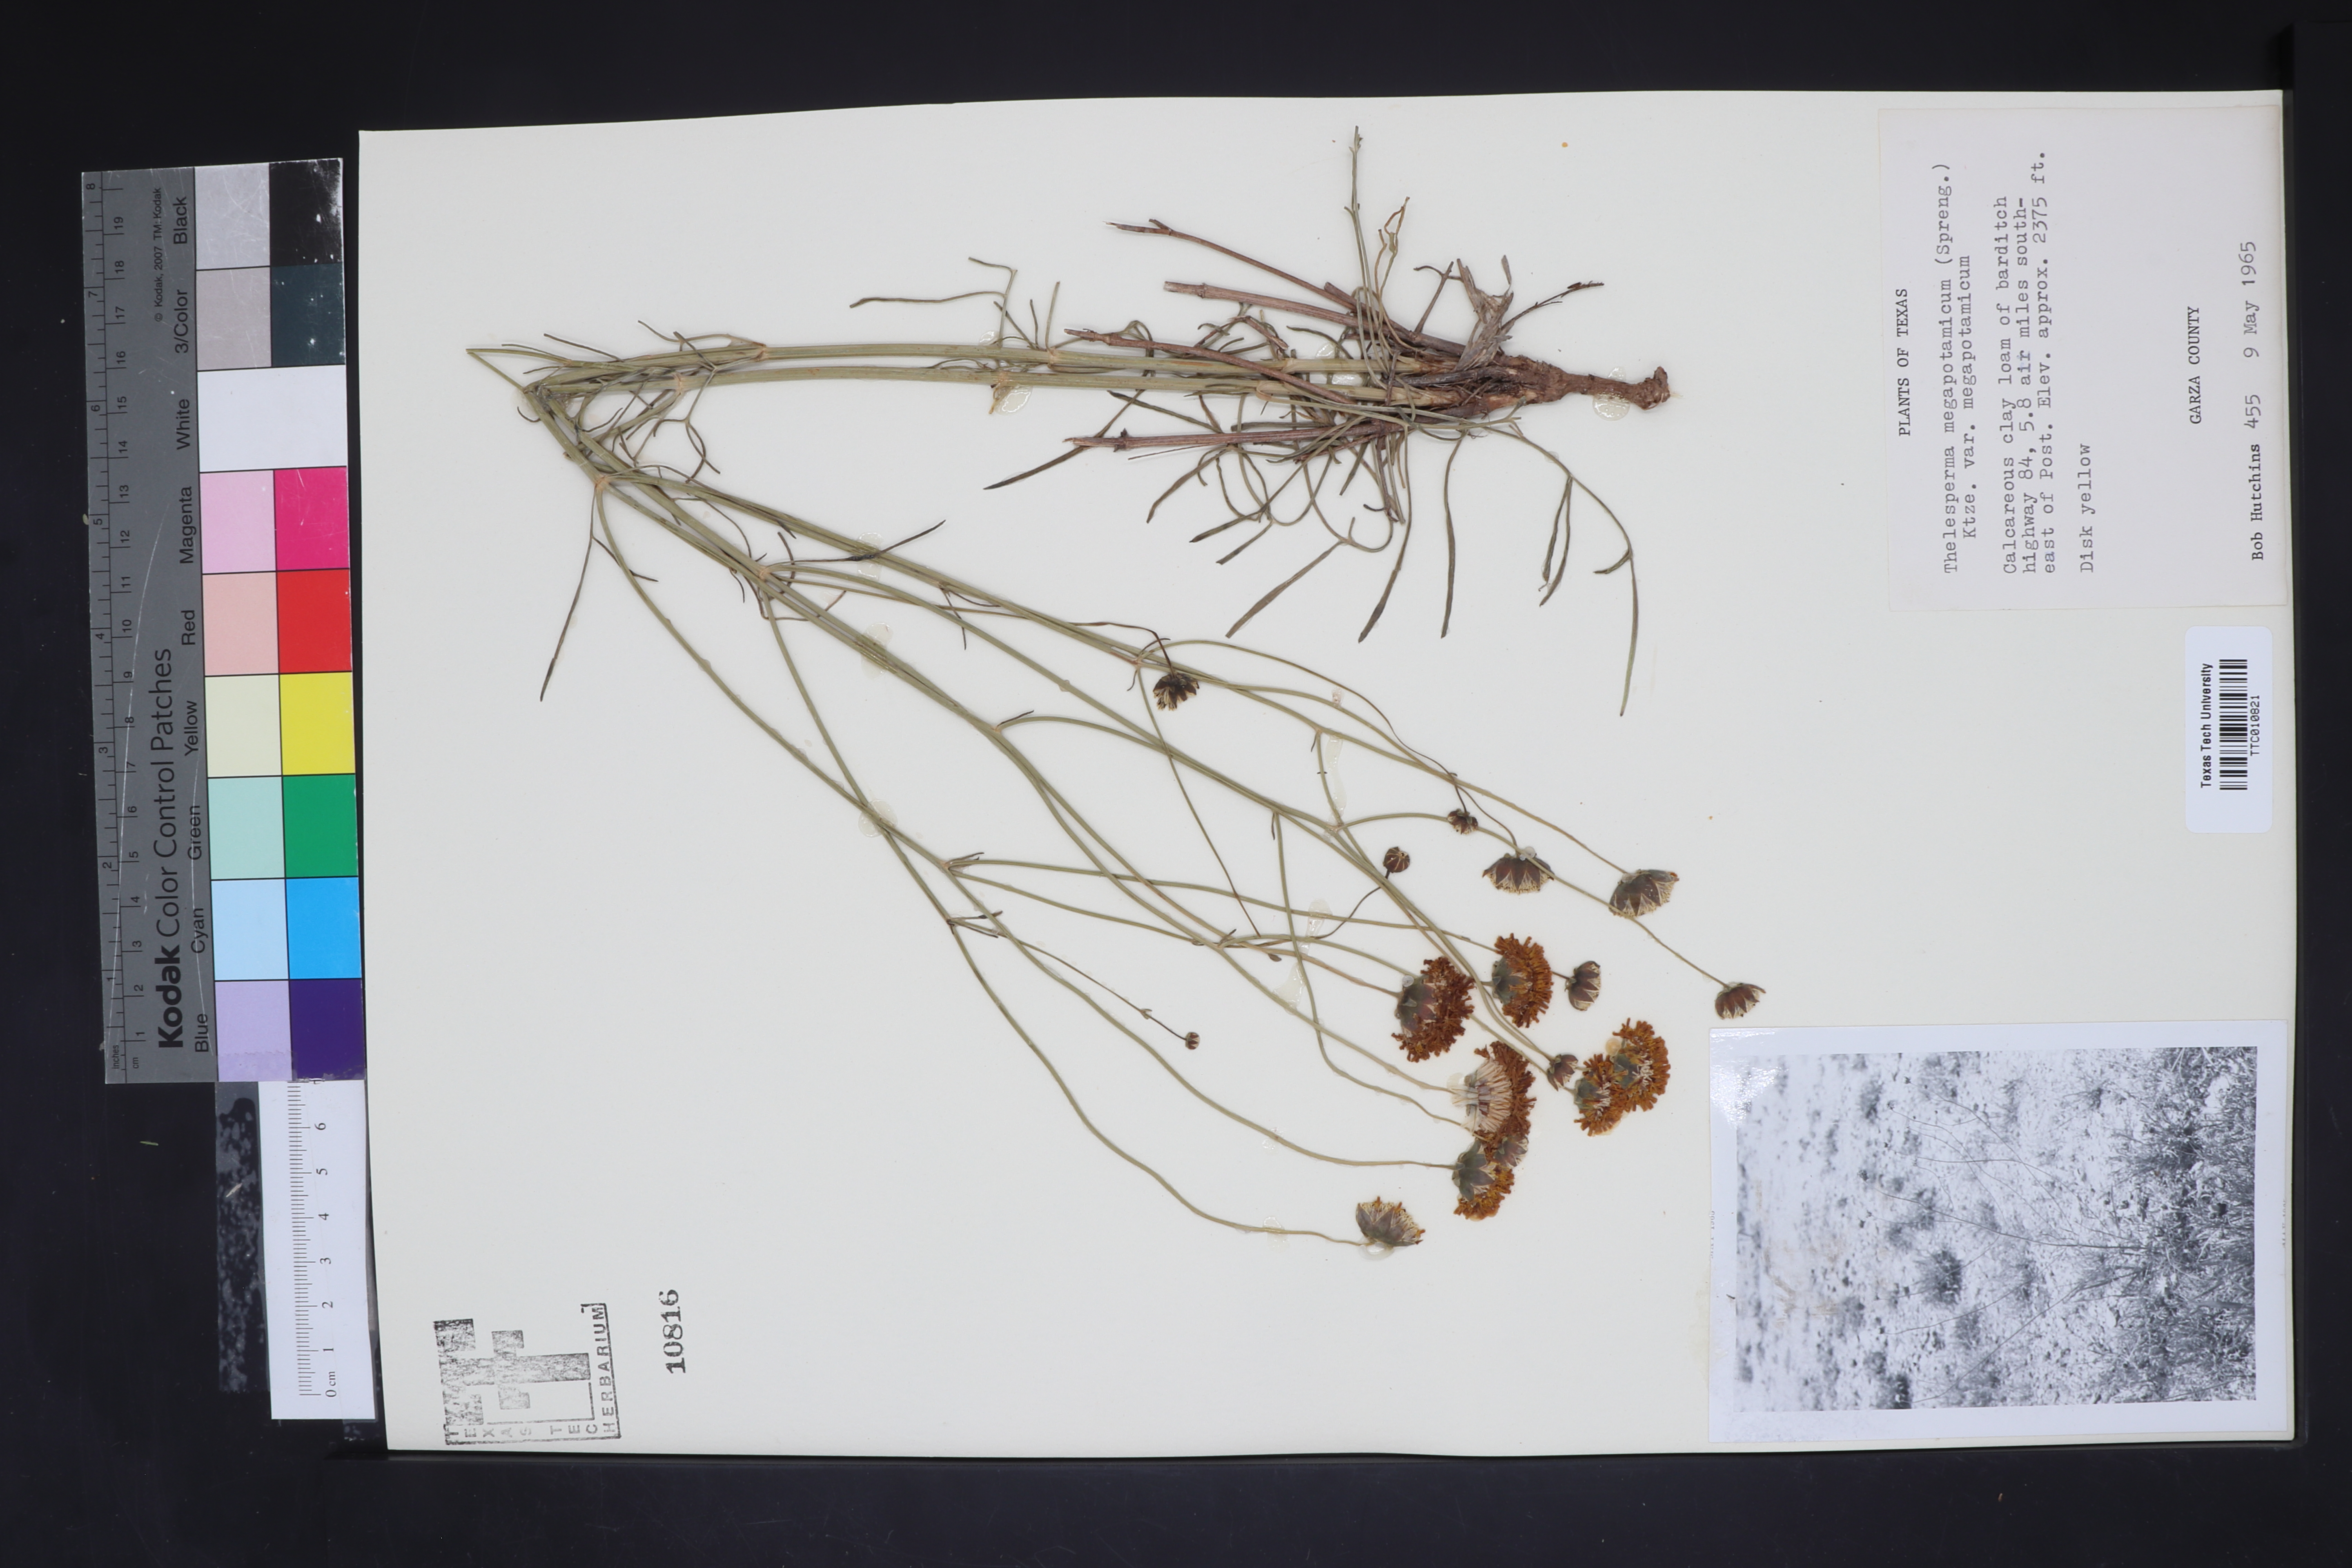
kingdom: Plantae
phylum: Tracheophyta
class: Magnoliopsida
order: Asterales
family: Asteraceae
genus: Thelesperma
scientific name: Thelesperma megapotamicum
